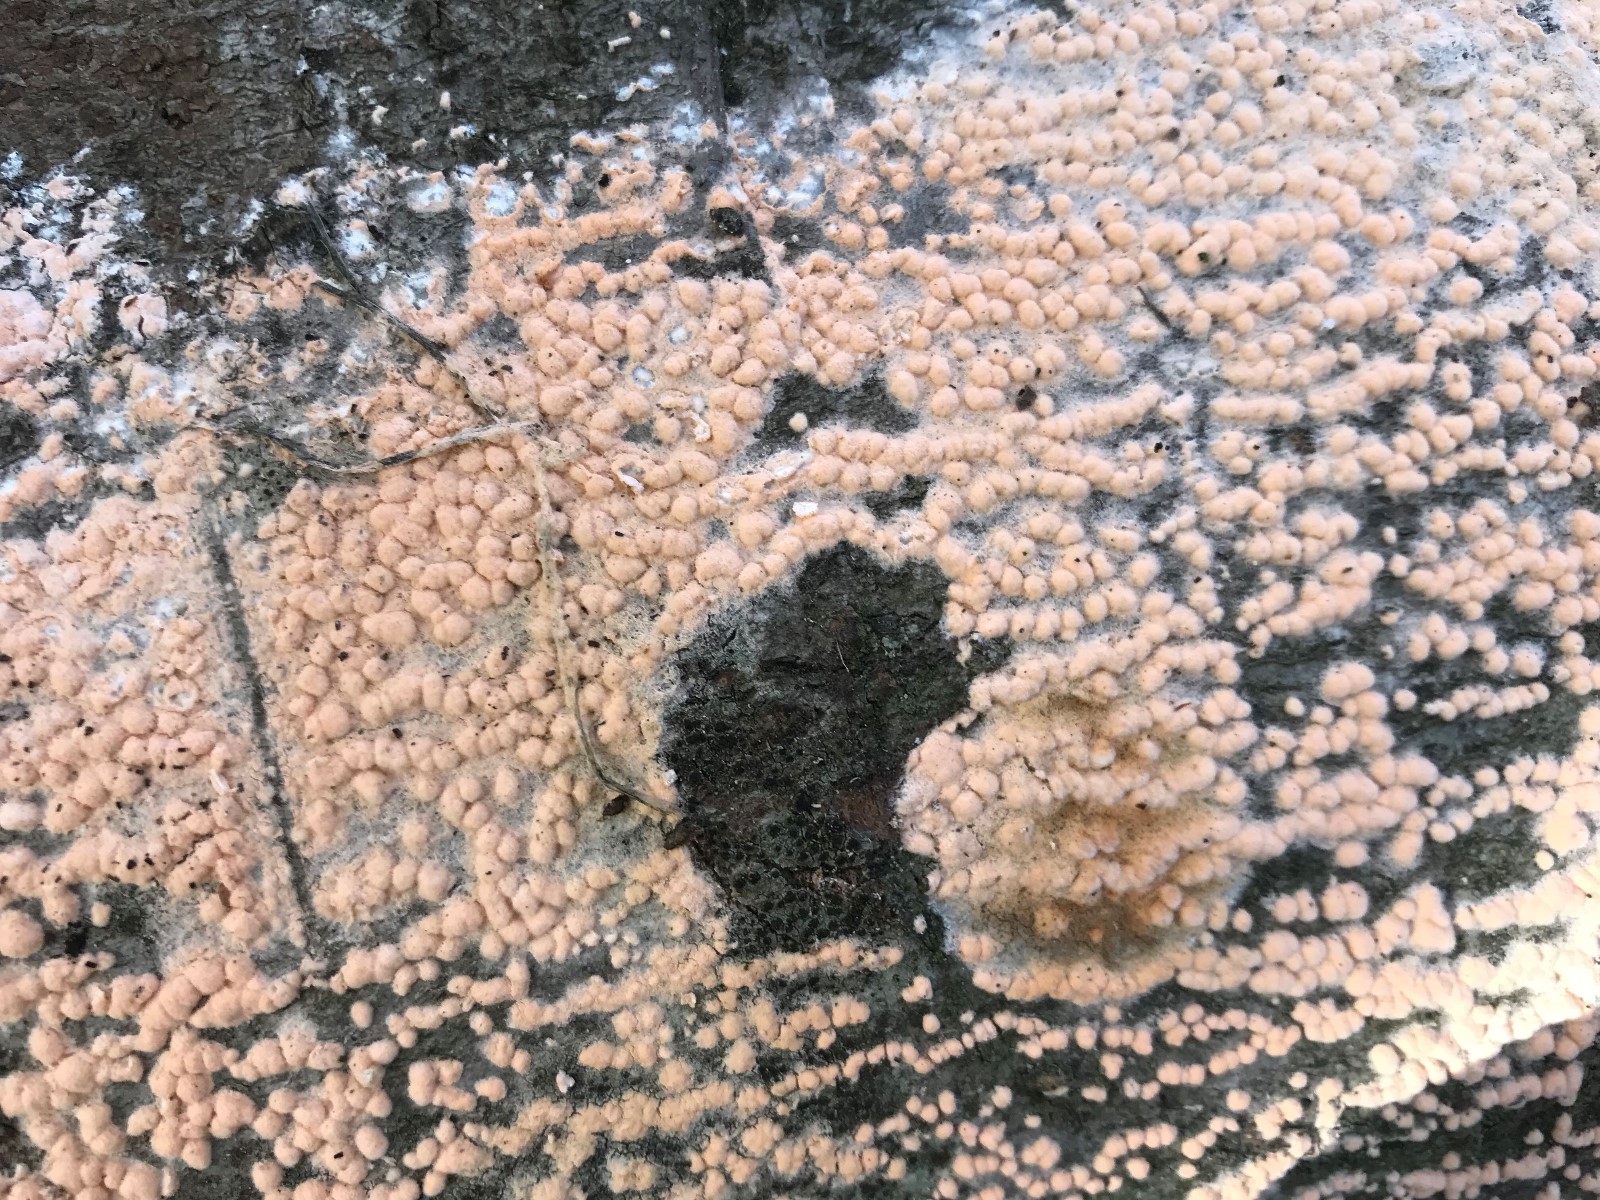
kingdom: Fungi
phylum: Ascomycota
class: Sordariomycetes
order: Hypocreales
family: Nectriaceae
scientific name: Nectriaceae
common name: cinnobersvampfamilien
